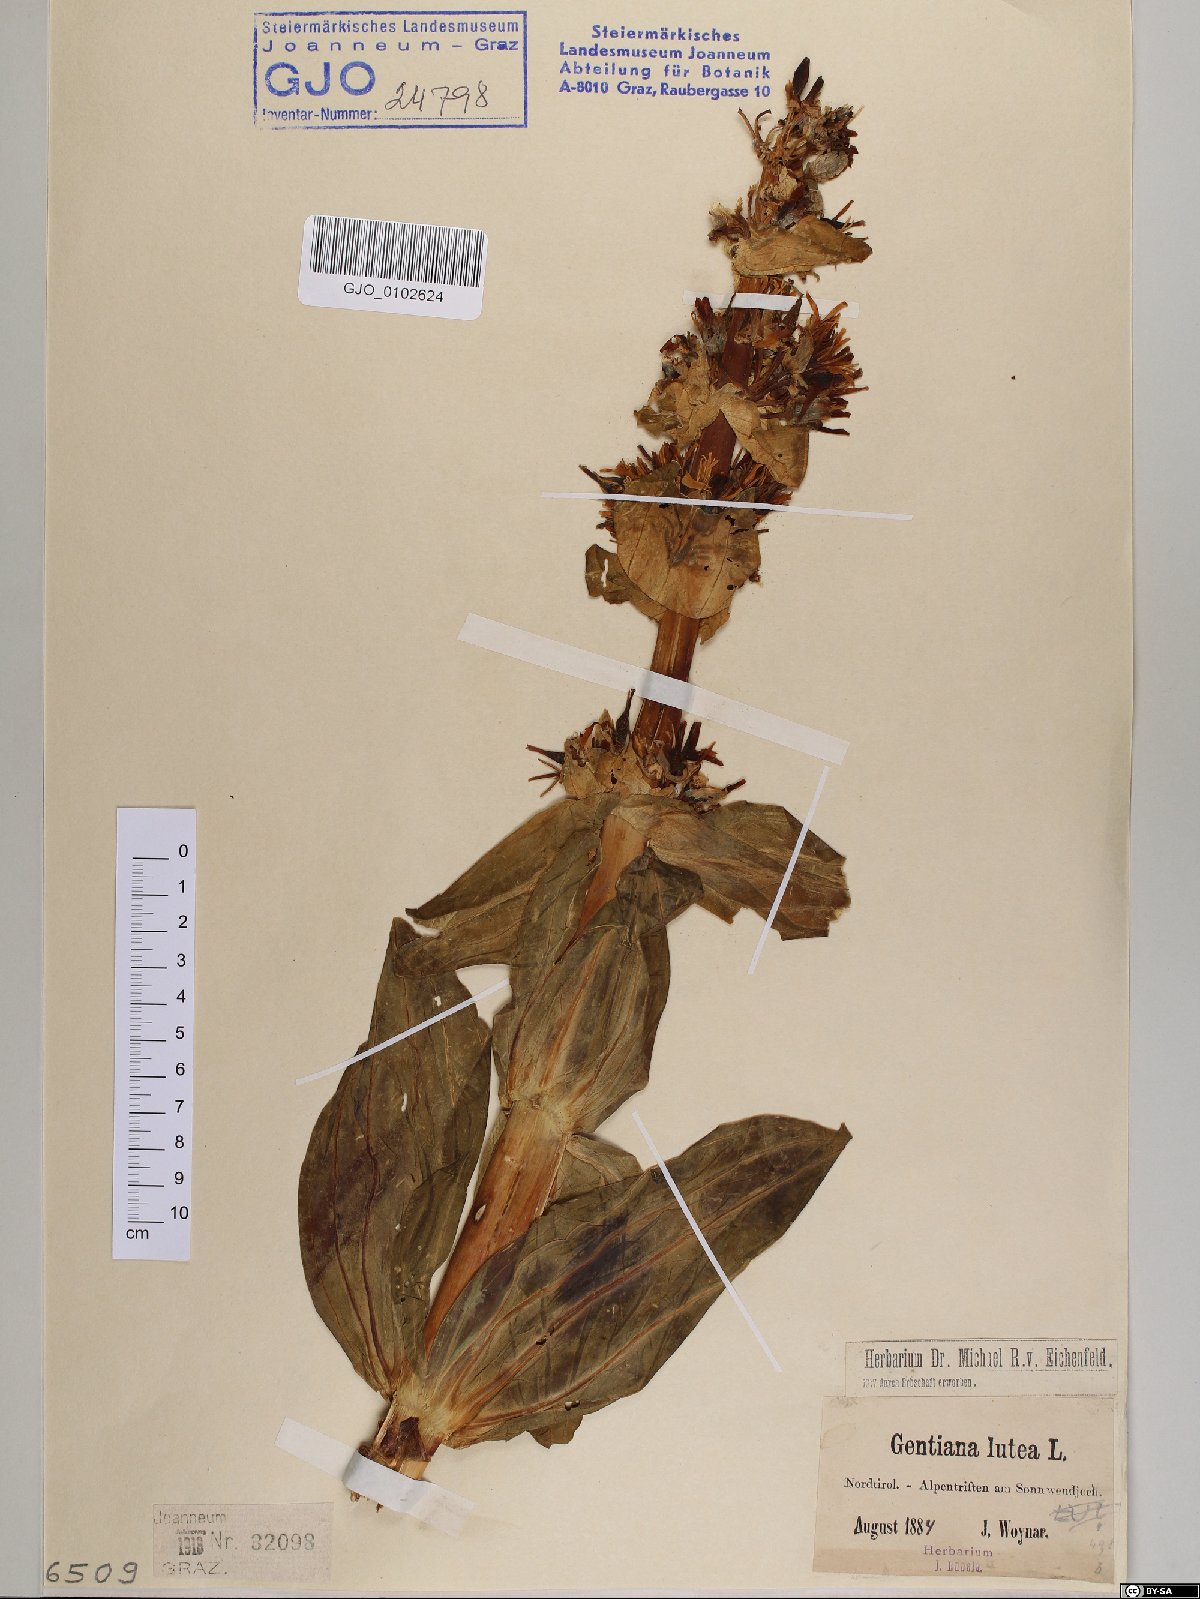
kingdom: Plantae
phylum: Tracheophyta
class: Magnoliopsida
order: Gentianales
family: Gentianaceae
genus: Gentiana
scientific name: Gentiana lutea
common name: Great yellow gentian
